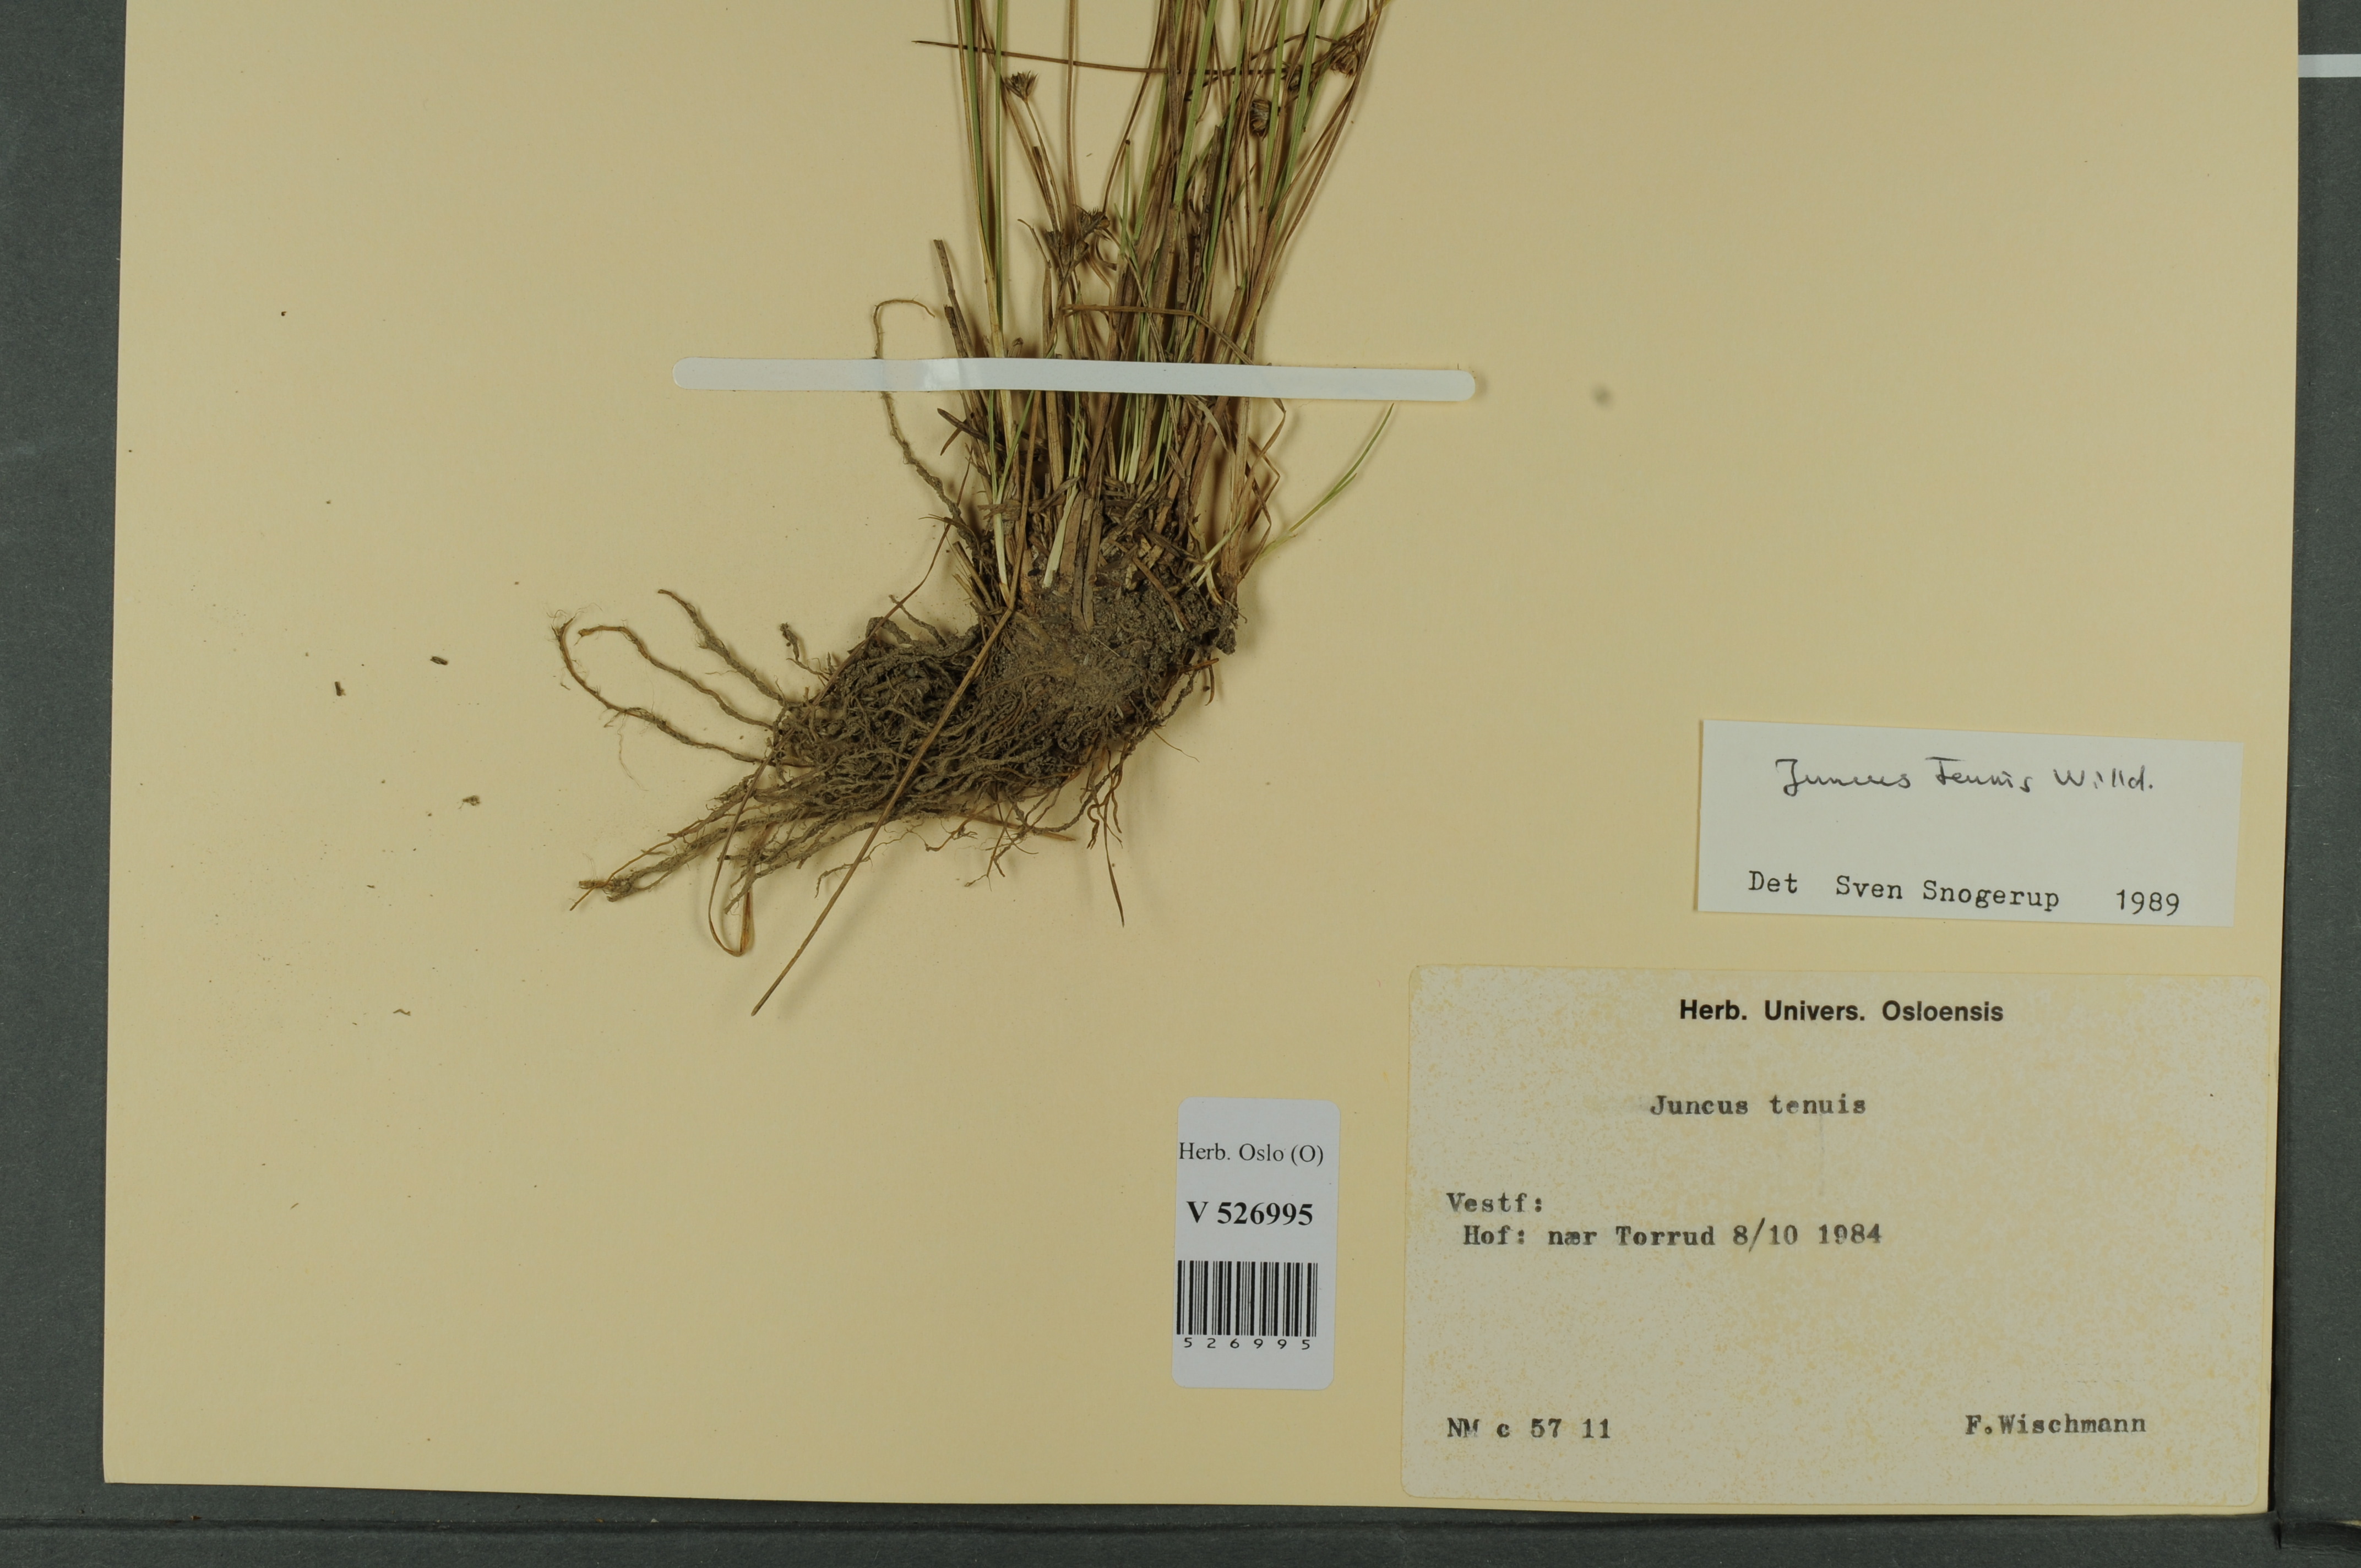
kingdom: Plantae
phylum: Tracheophyta
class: Liliopsida
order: Poales
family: Juncaceae
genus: Juncus
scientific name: Juncus tenuis
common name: Slender rush
